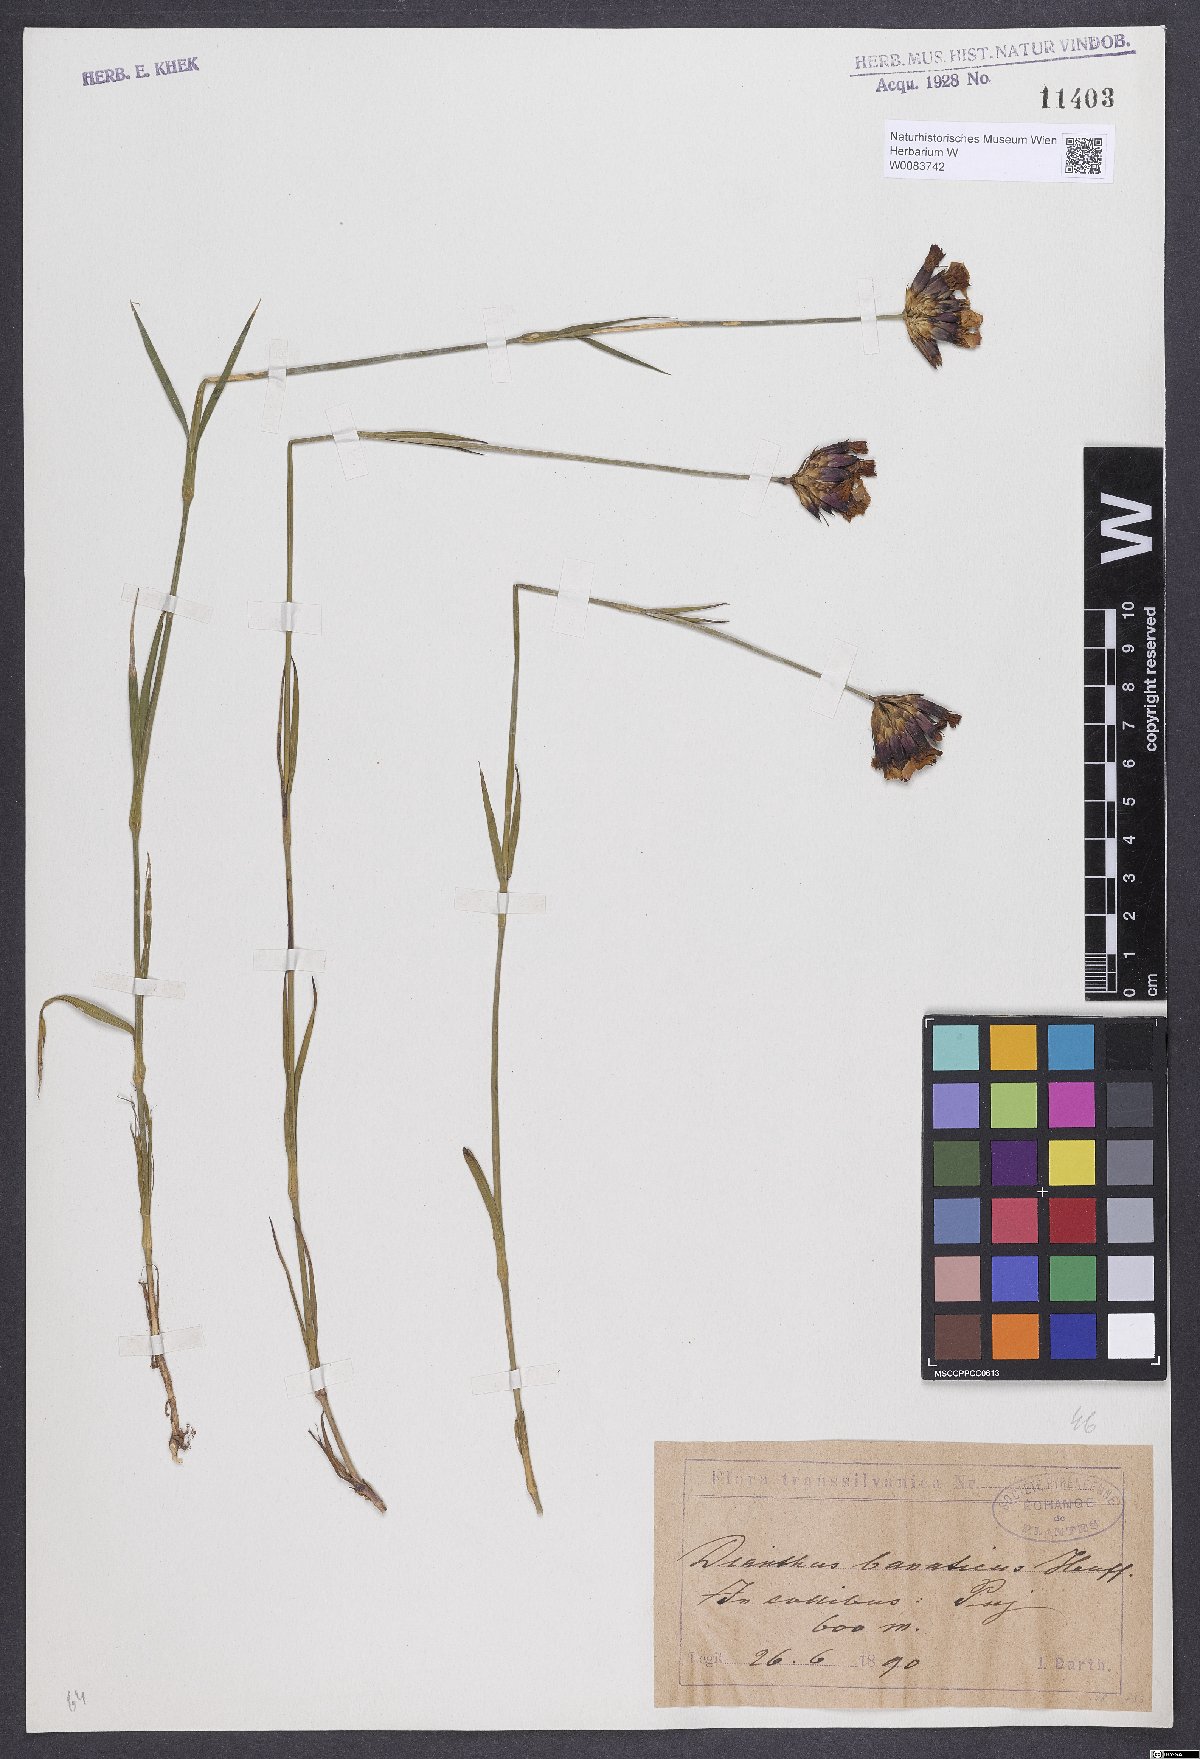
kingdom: Plantae
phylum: Tracheophyta
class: Magnoliopsida
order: Caryophyllales
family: Caryophyllaceae
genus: Dianthus
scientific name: Dianthus giganteus
